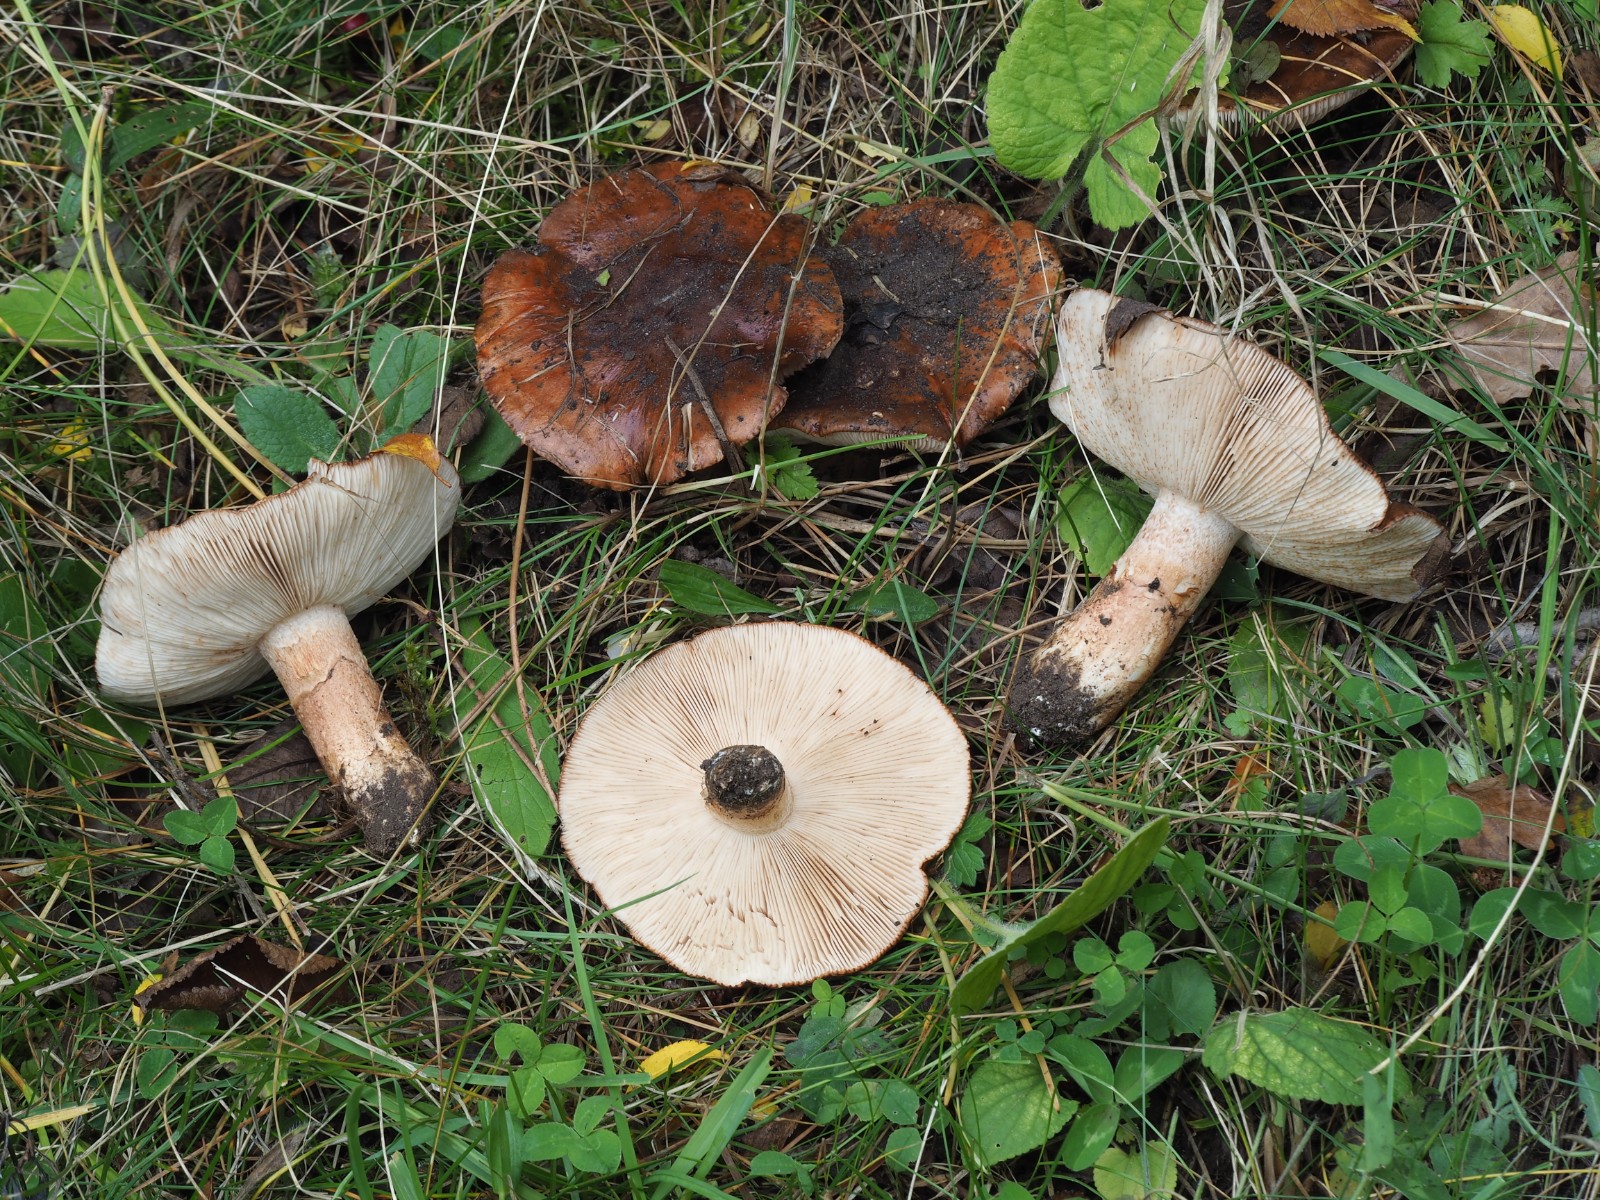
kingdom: Fungi
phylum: Basidiomycota
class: Agaricomycetes
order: Agaricales
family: Tricholomataceae
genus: Tricholoma
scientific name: Tricholoma fracticum
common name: hvidhalset ridderhat
